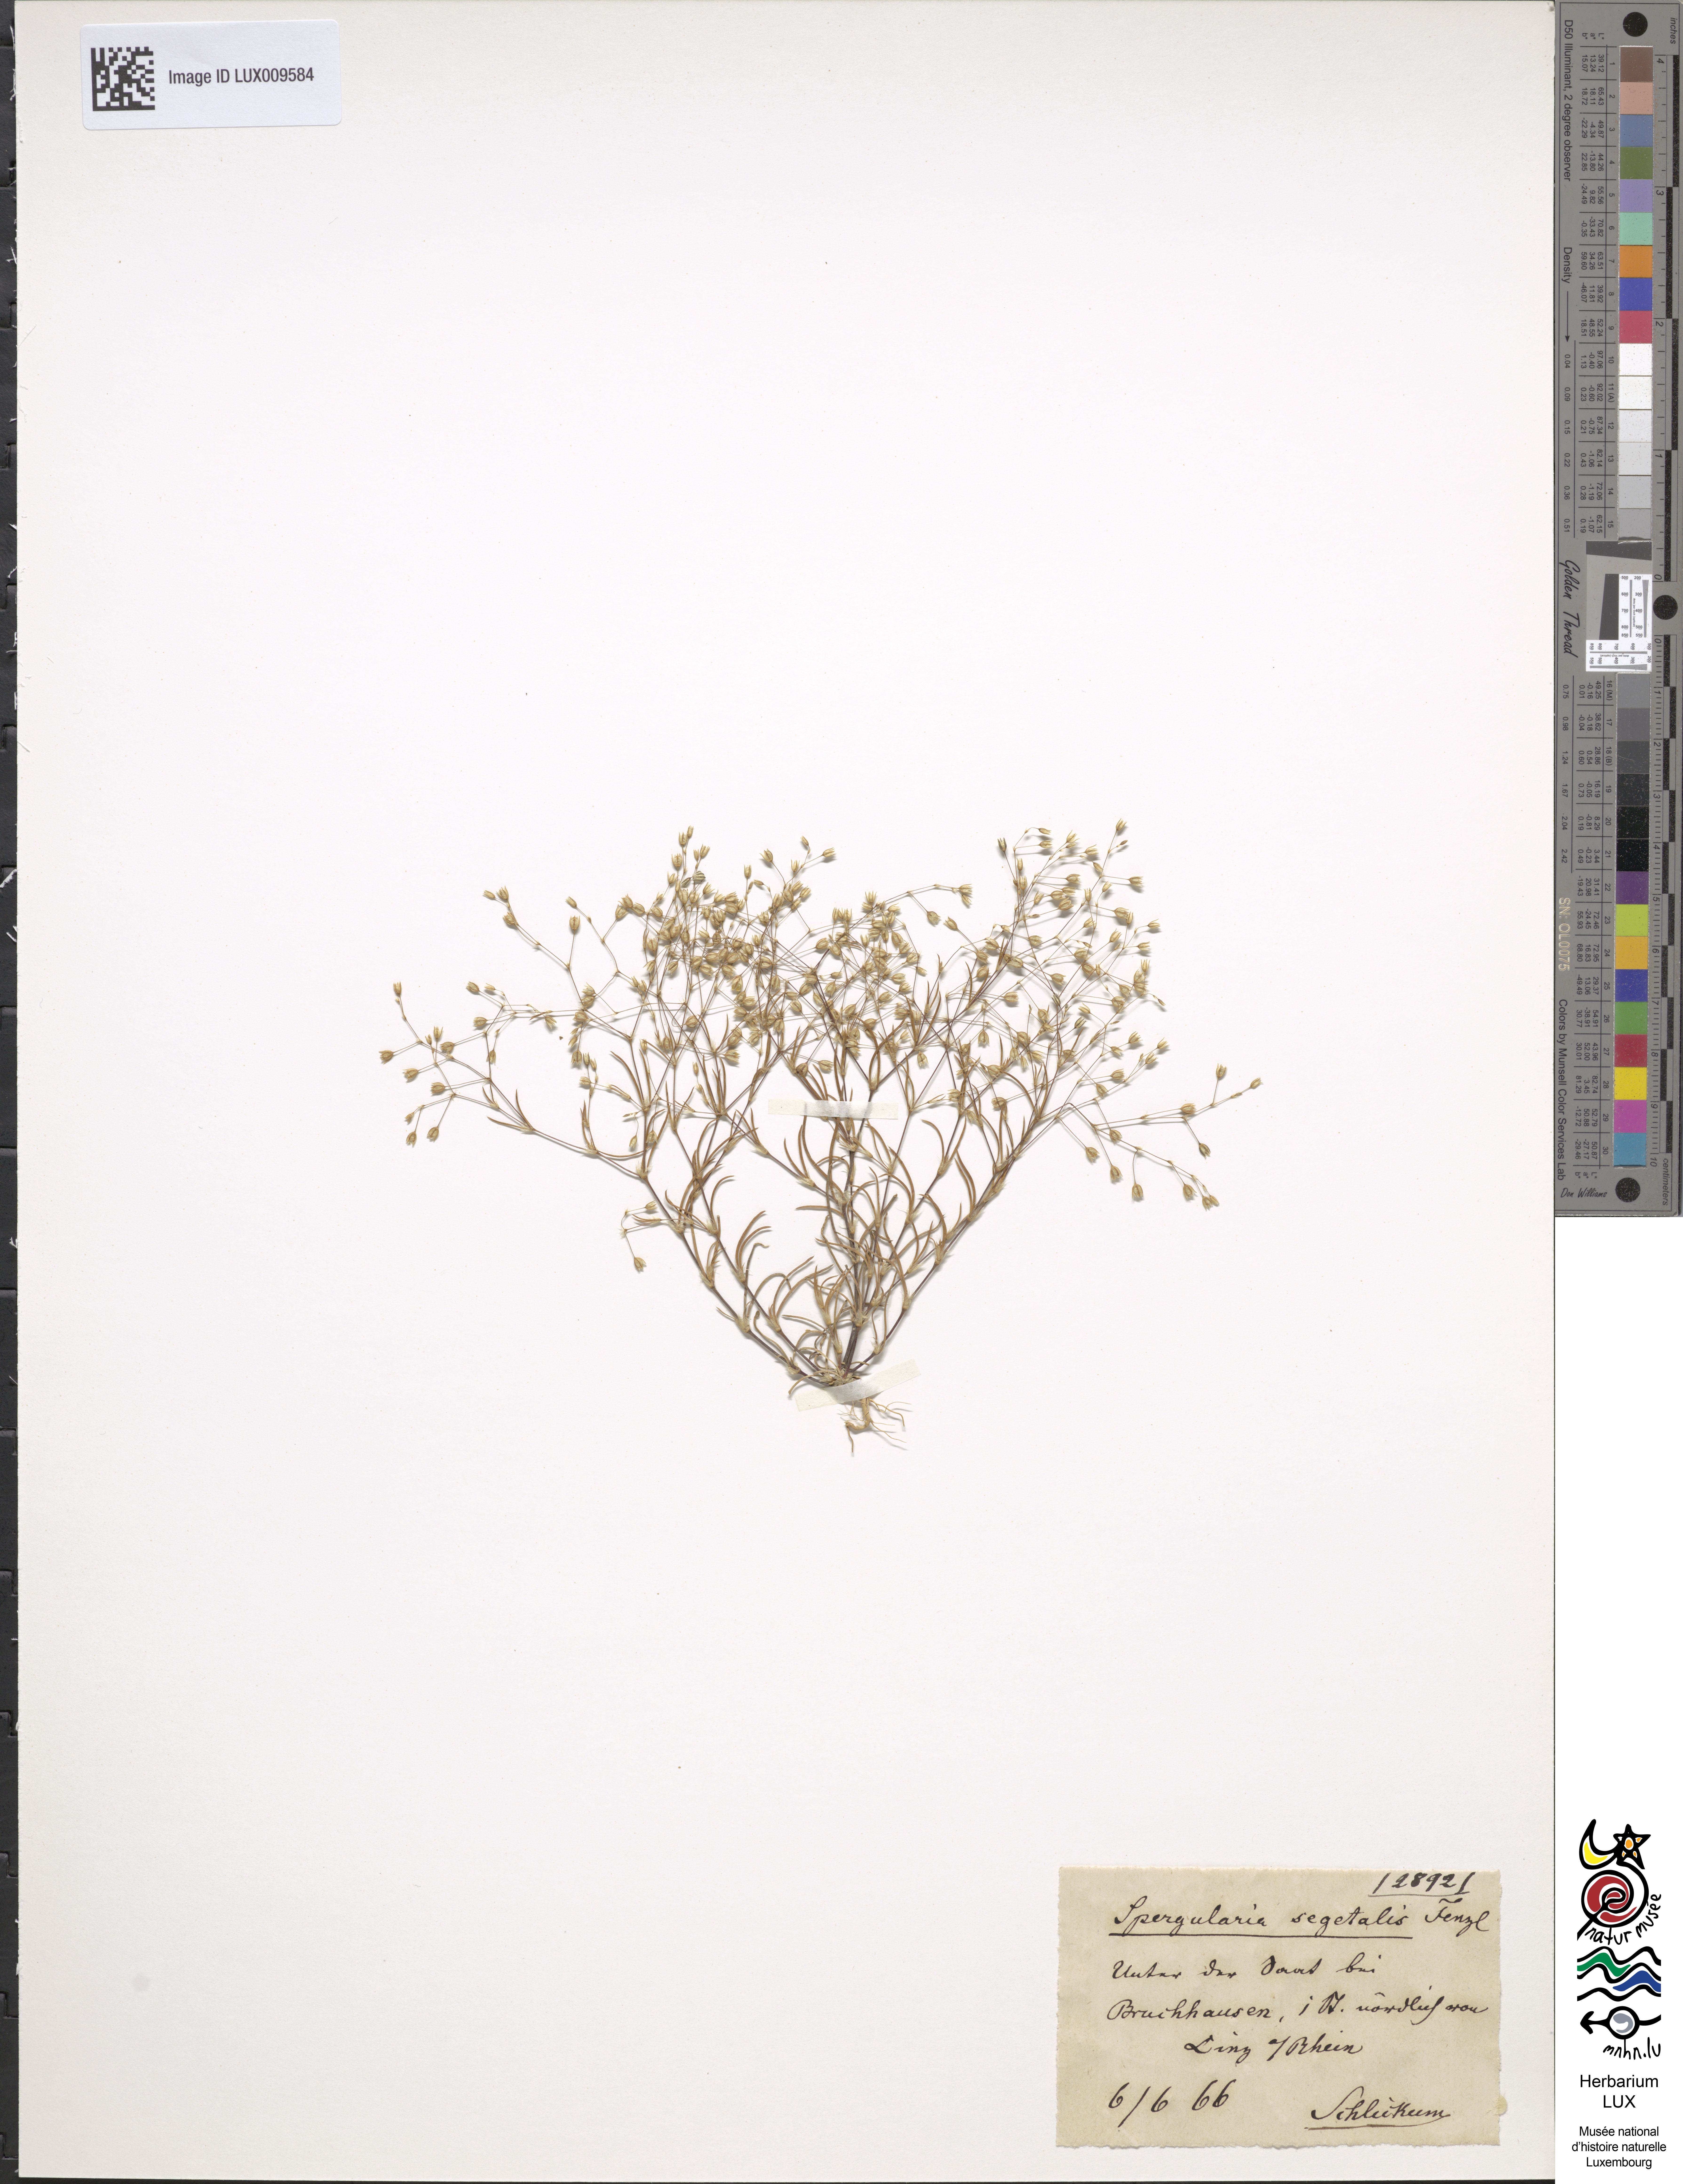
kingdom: Plantae
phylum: Tracheophyta
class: Magnoliopsida
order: Caryophyllales
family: Caryophyllaceae
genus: Spergularia
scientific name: Spergularia segetalis
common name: Corn sand spurrey
